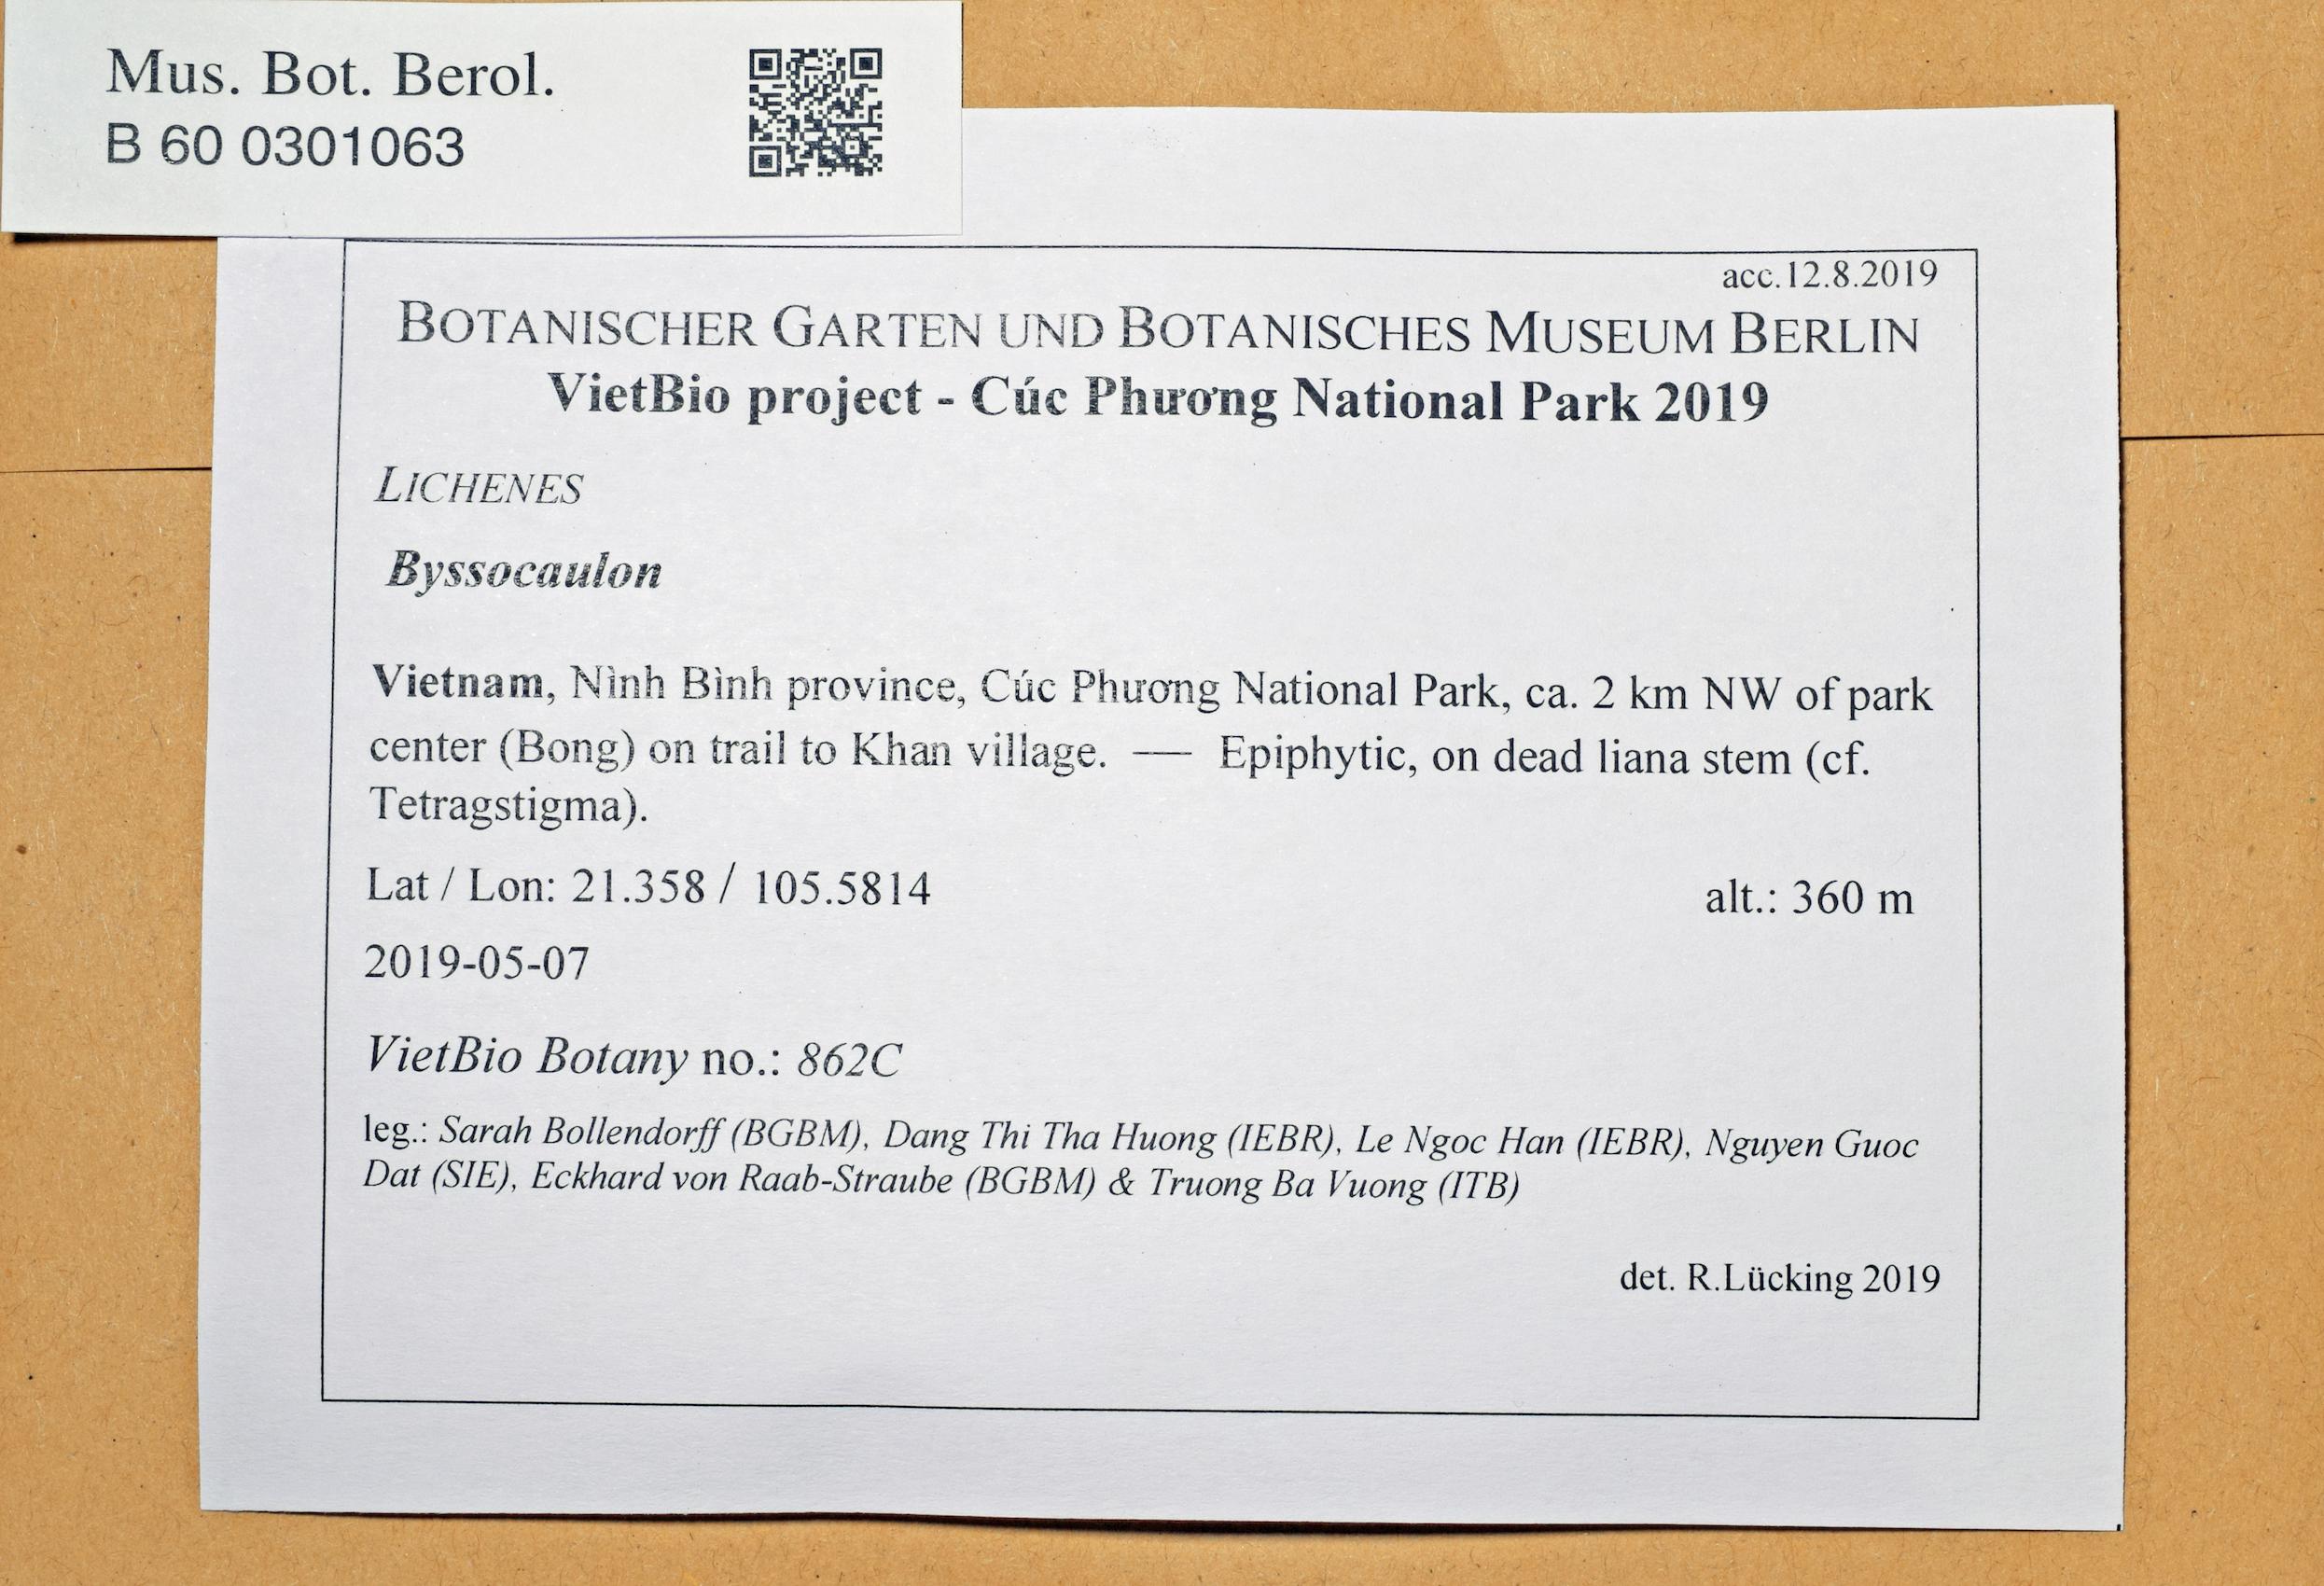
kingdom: Fungi
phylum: Ascomycota
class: Arthoniomycetes
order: Arthoniales
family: Chrysotrichaceae
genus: Byssocaulon
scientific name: Byssocaulon
